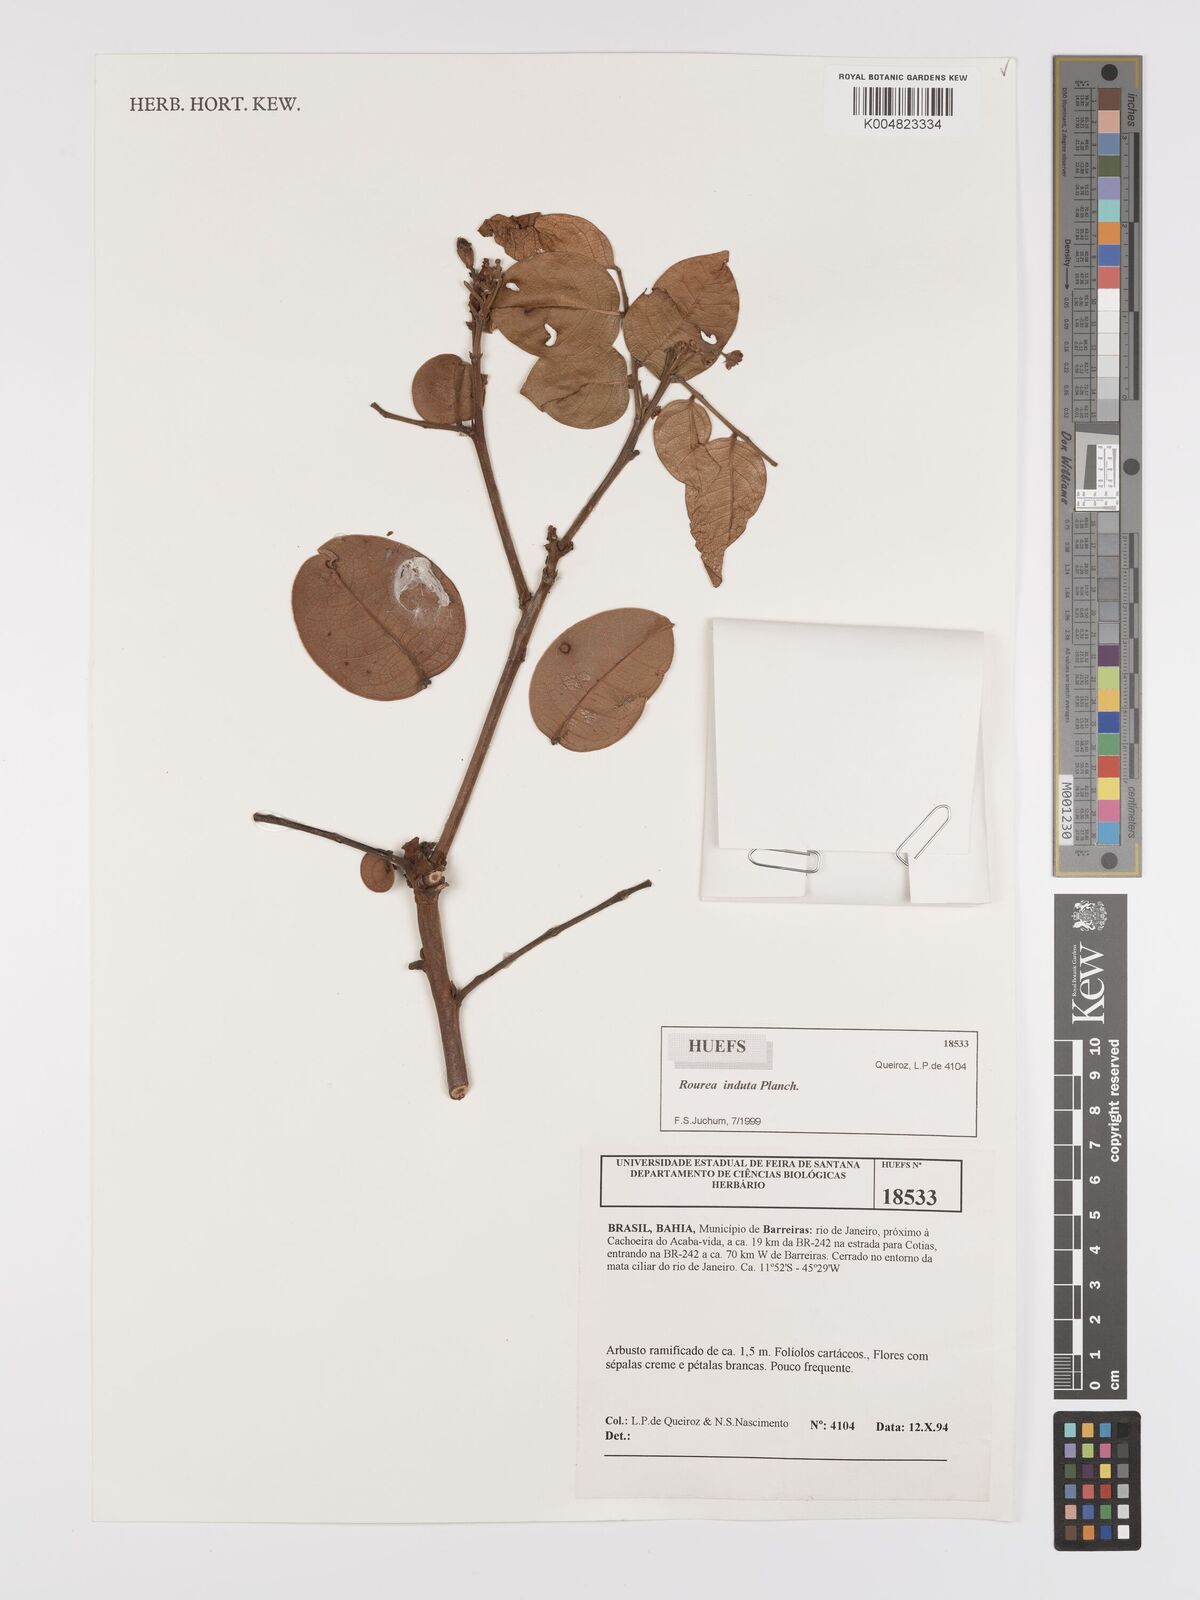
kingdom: Plantae
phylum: Tracheophyta
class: Magnoliopsida
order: Oxalidales
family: Connaraceae
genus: Rourea
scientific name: Rourea induta
